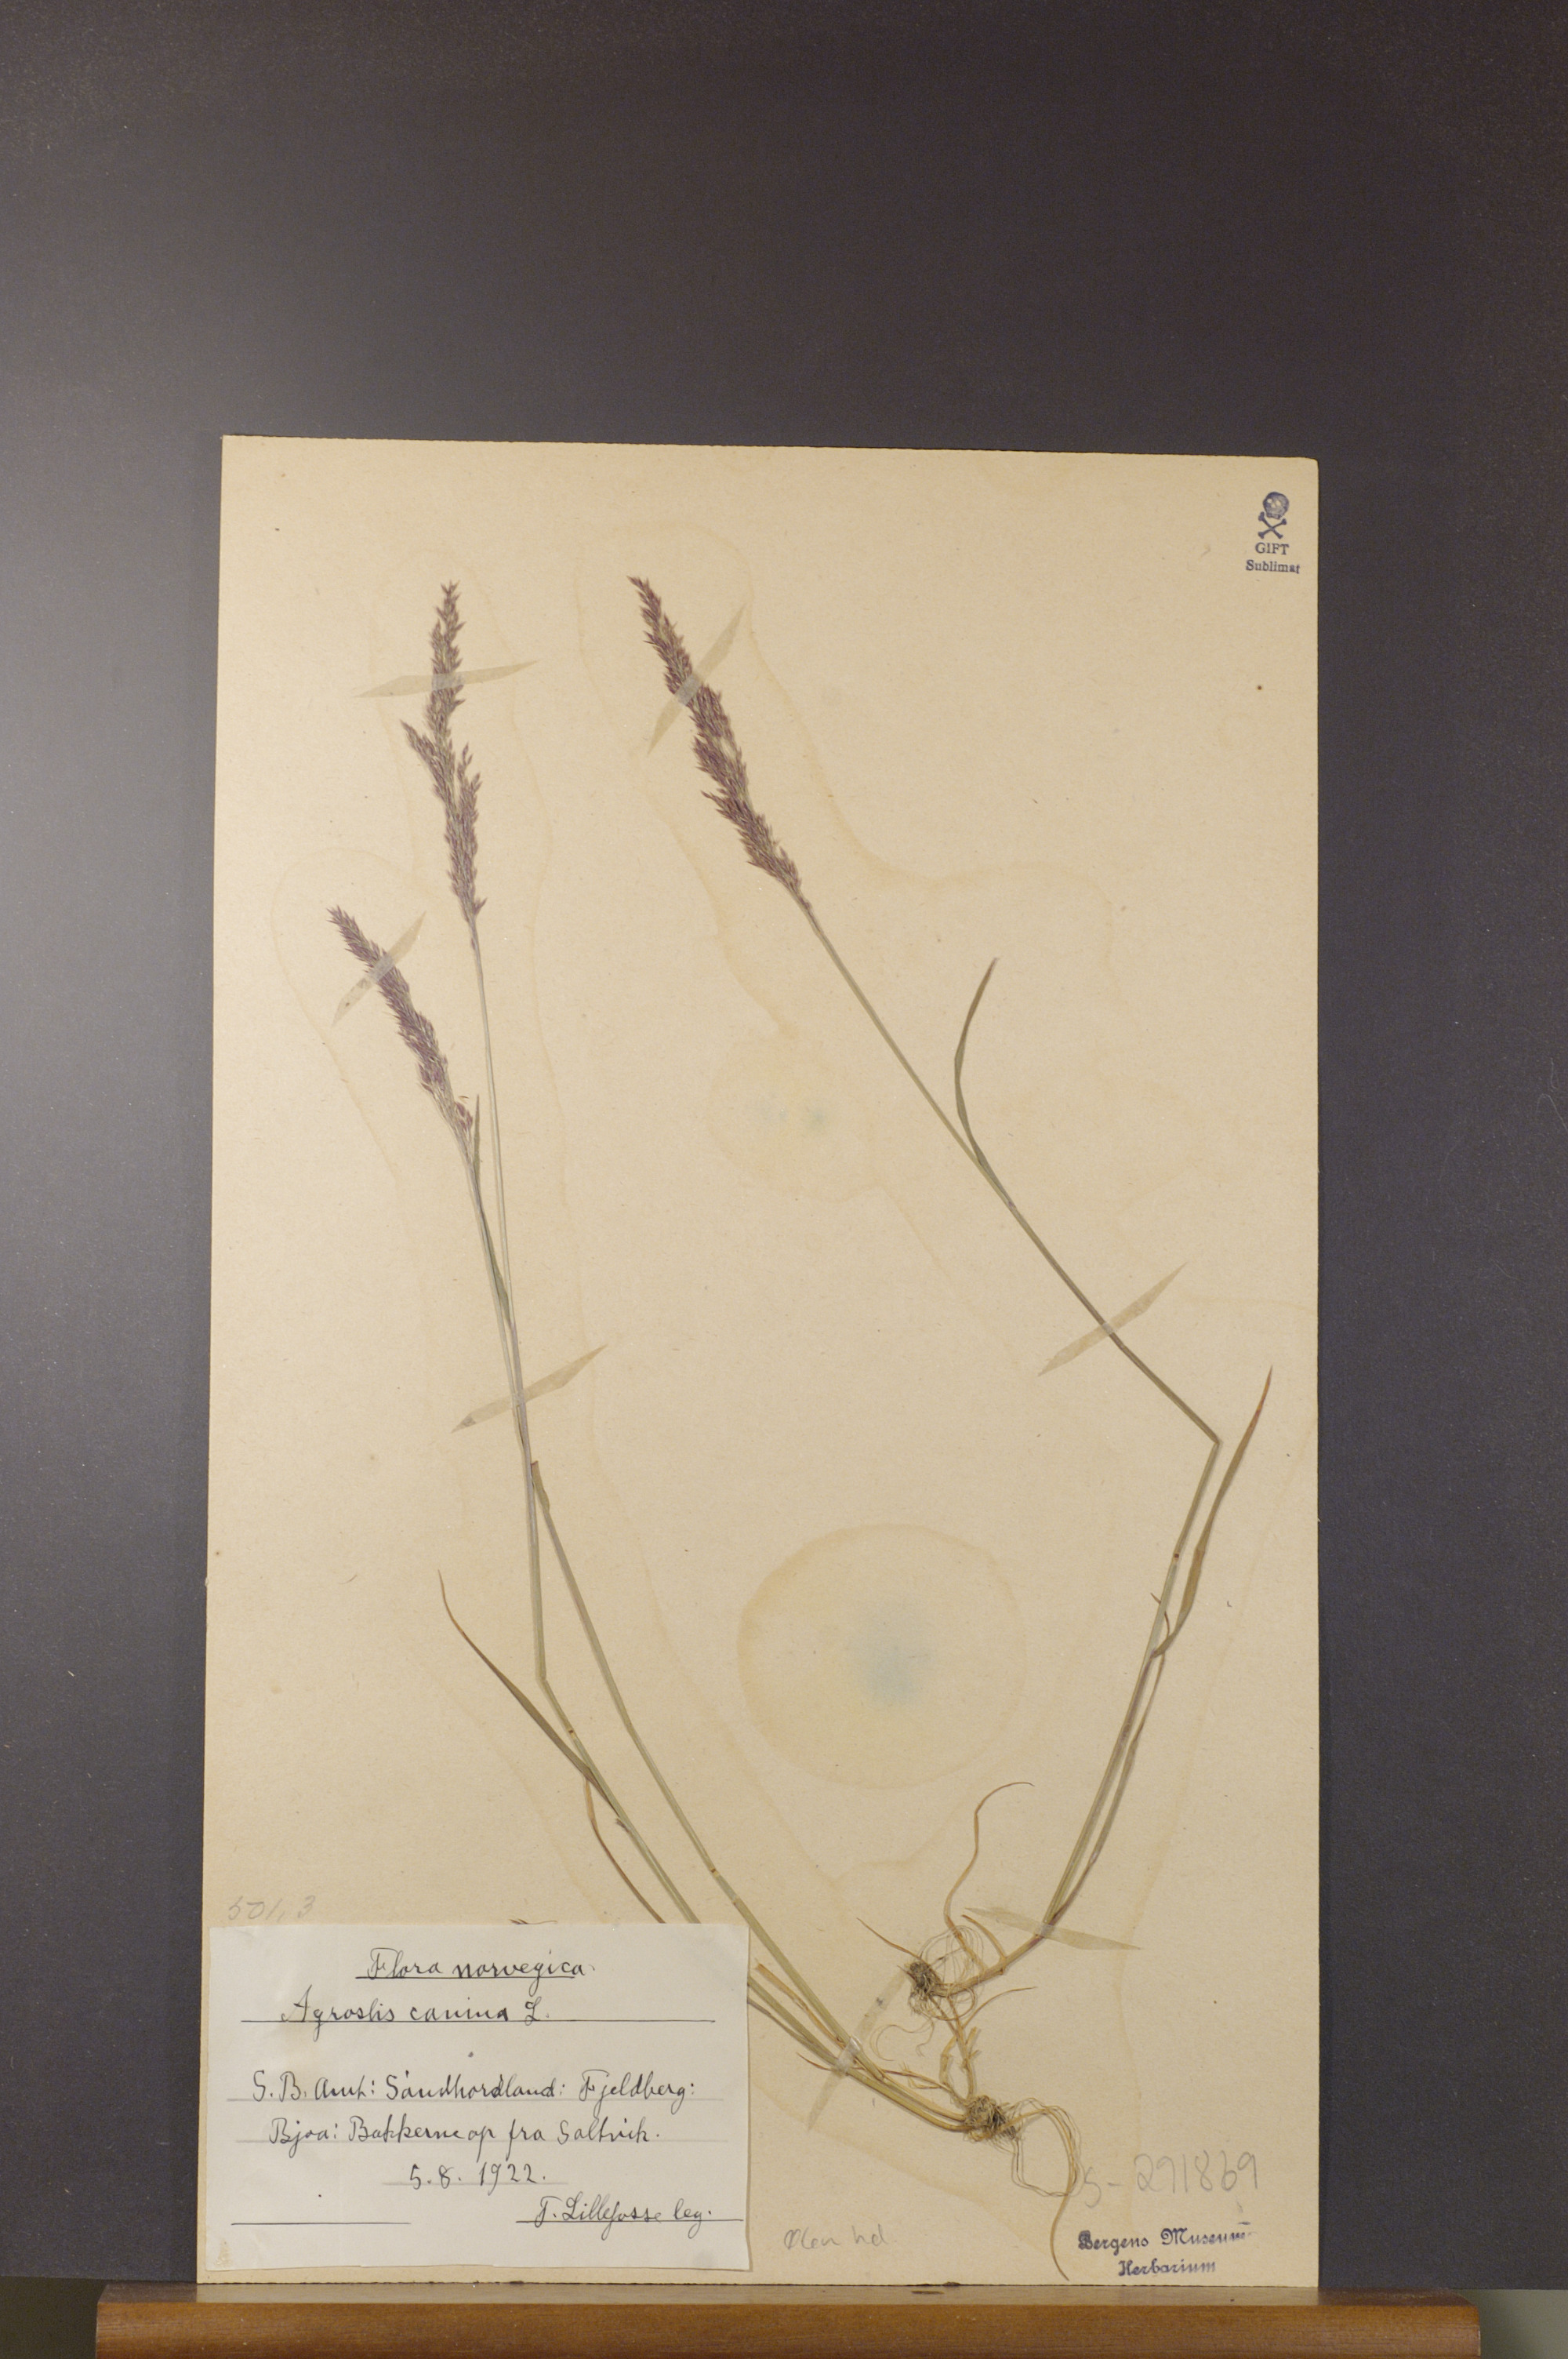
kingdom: Plantae
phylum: Tracheophyta
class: Liliopsida
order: Poales
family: Poaceae
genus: Agrostis
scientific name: Agrostis canina
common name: Velvet bent
